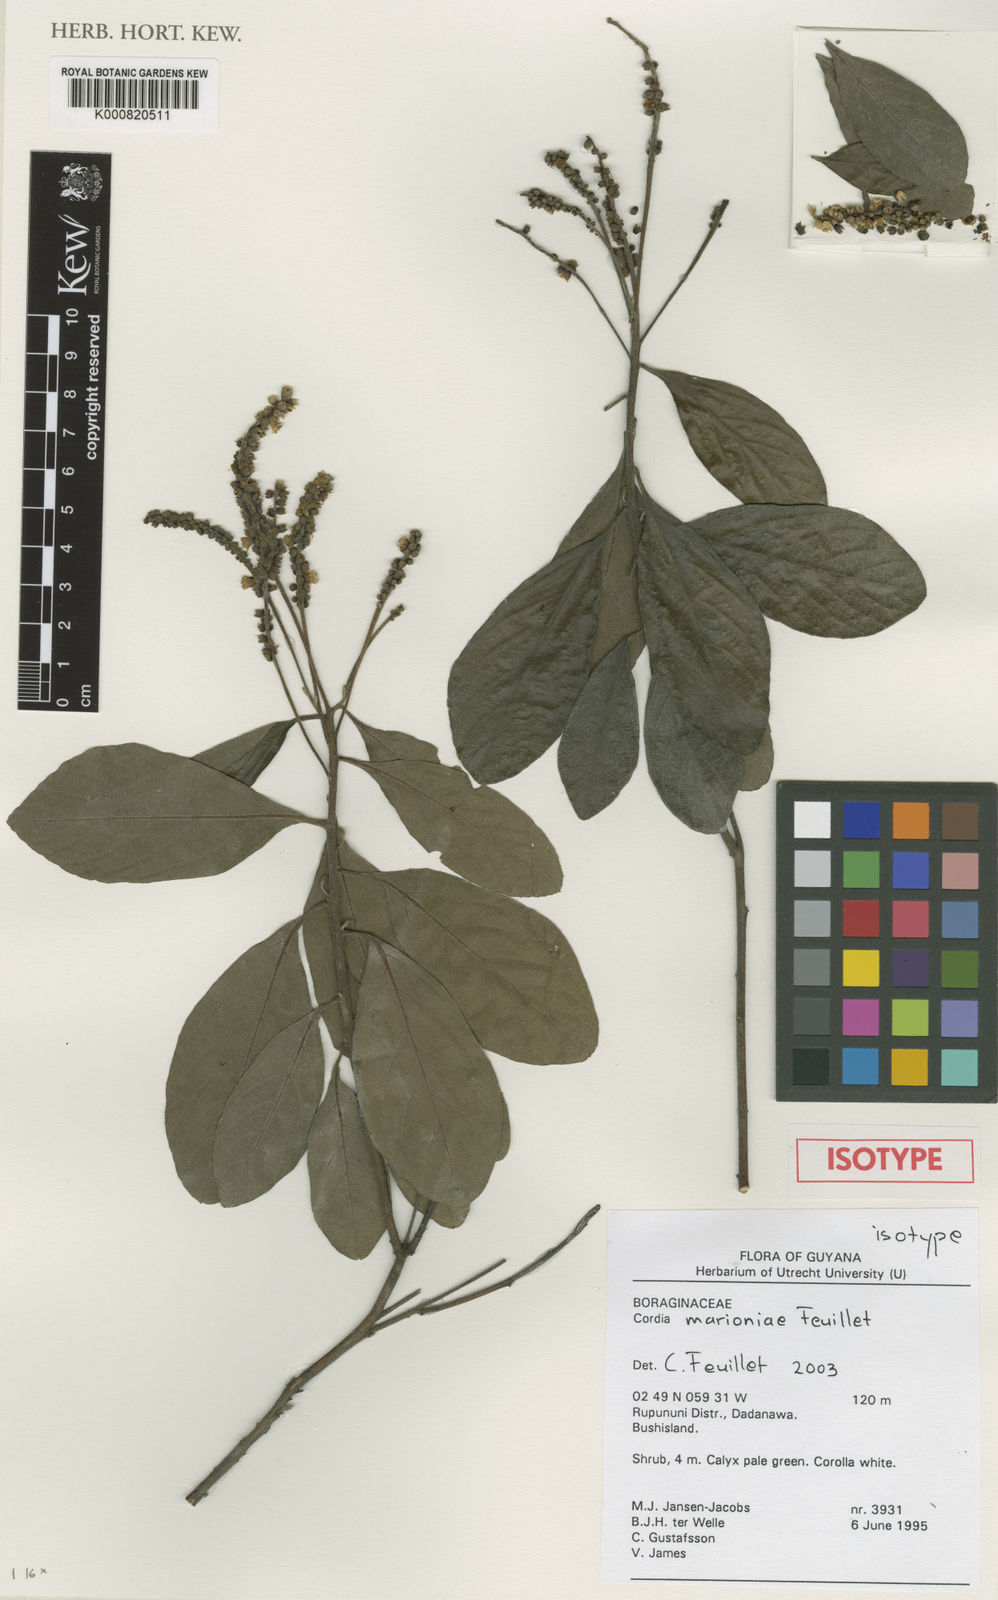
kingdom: Plantae
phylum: Tracheophyta
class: Magnoliopsida
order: Boraginales
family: Cordiaceae
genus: Varronia
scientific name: Varronia marioniae
